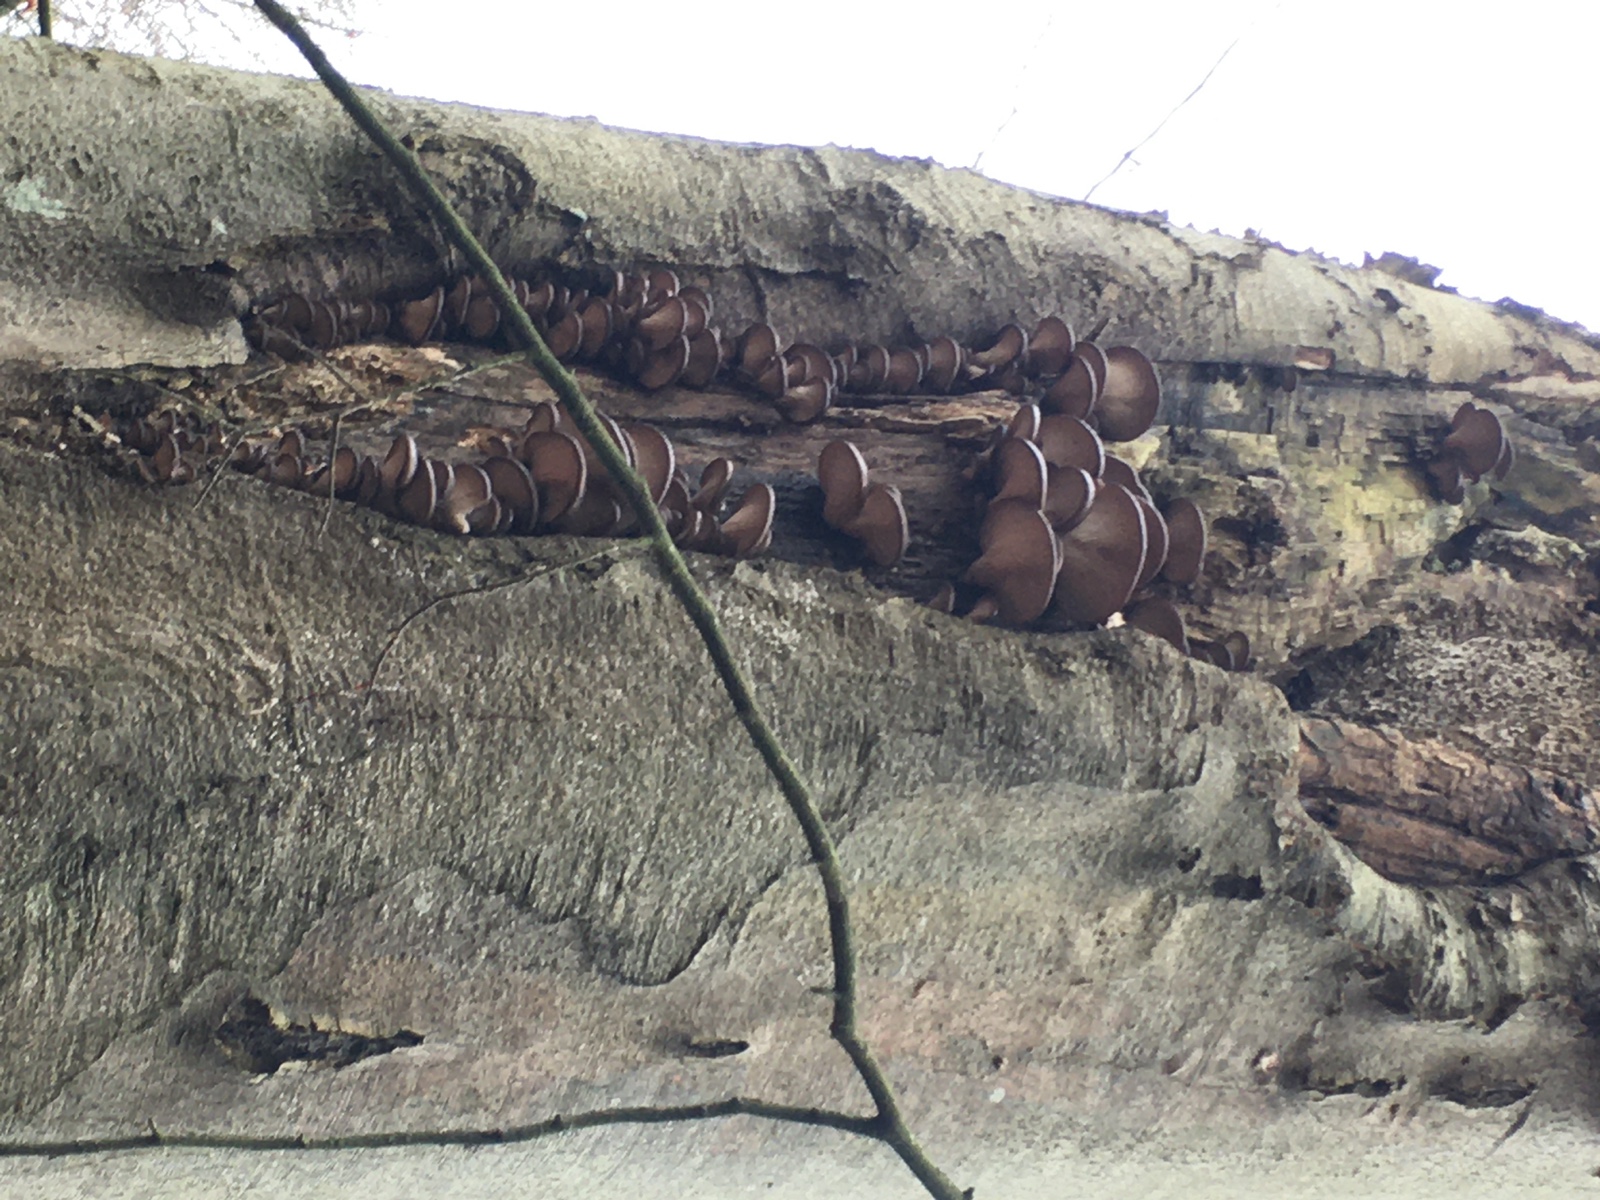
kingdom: Fungi
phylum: Basidiomycota
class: Agaricomycetes
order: Agaricales
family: Pleurotaceae
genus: Pleurotus
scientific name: Pleurotus ostreatus
